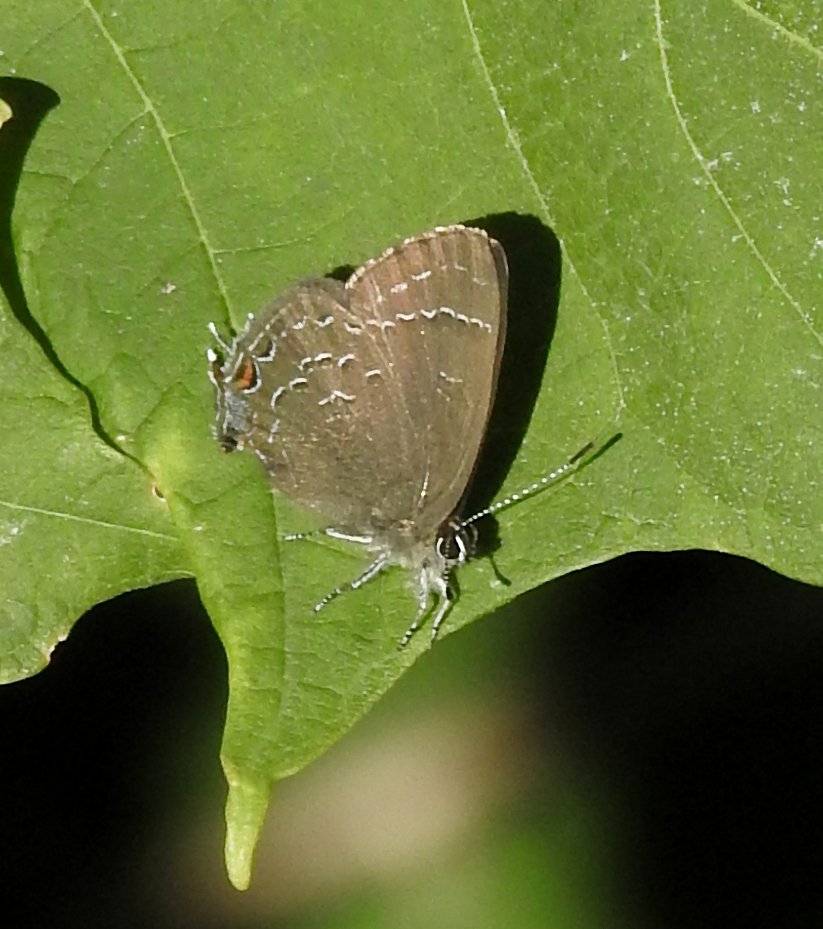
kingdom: Animalia
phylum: Arthropoda
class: Insecta
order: Lepidoptera
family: Lycaenidae
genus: Satyrium
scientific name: Satyrium calanus
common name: Banded Hairstreak
